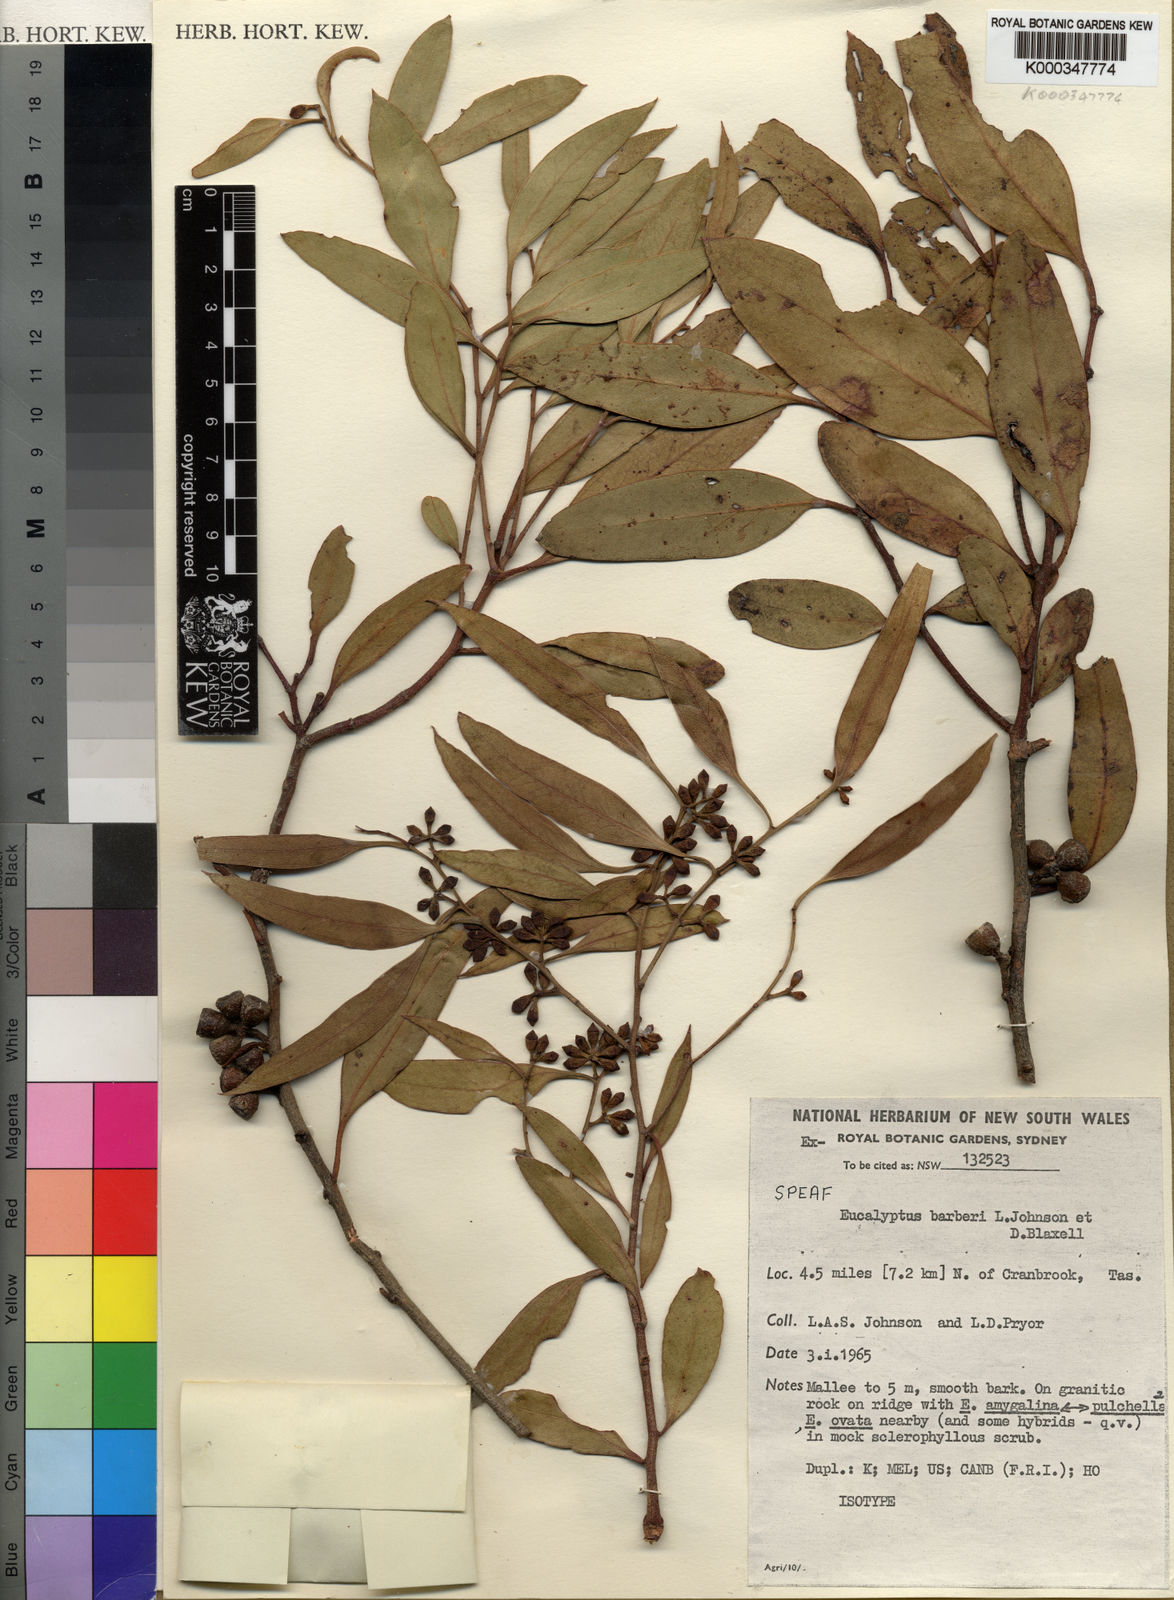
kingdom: Plantae
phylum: Tracheophyta
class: Magnoliopsida
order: Myrtales
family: Myrtaceae
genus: Eucalyptus
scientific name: Eucalyptus barberi
